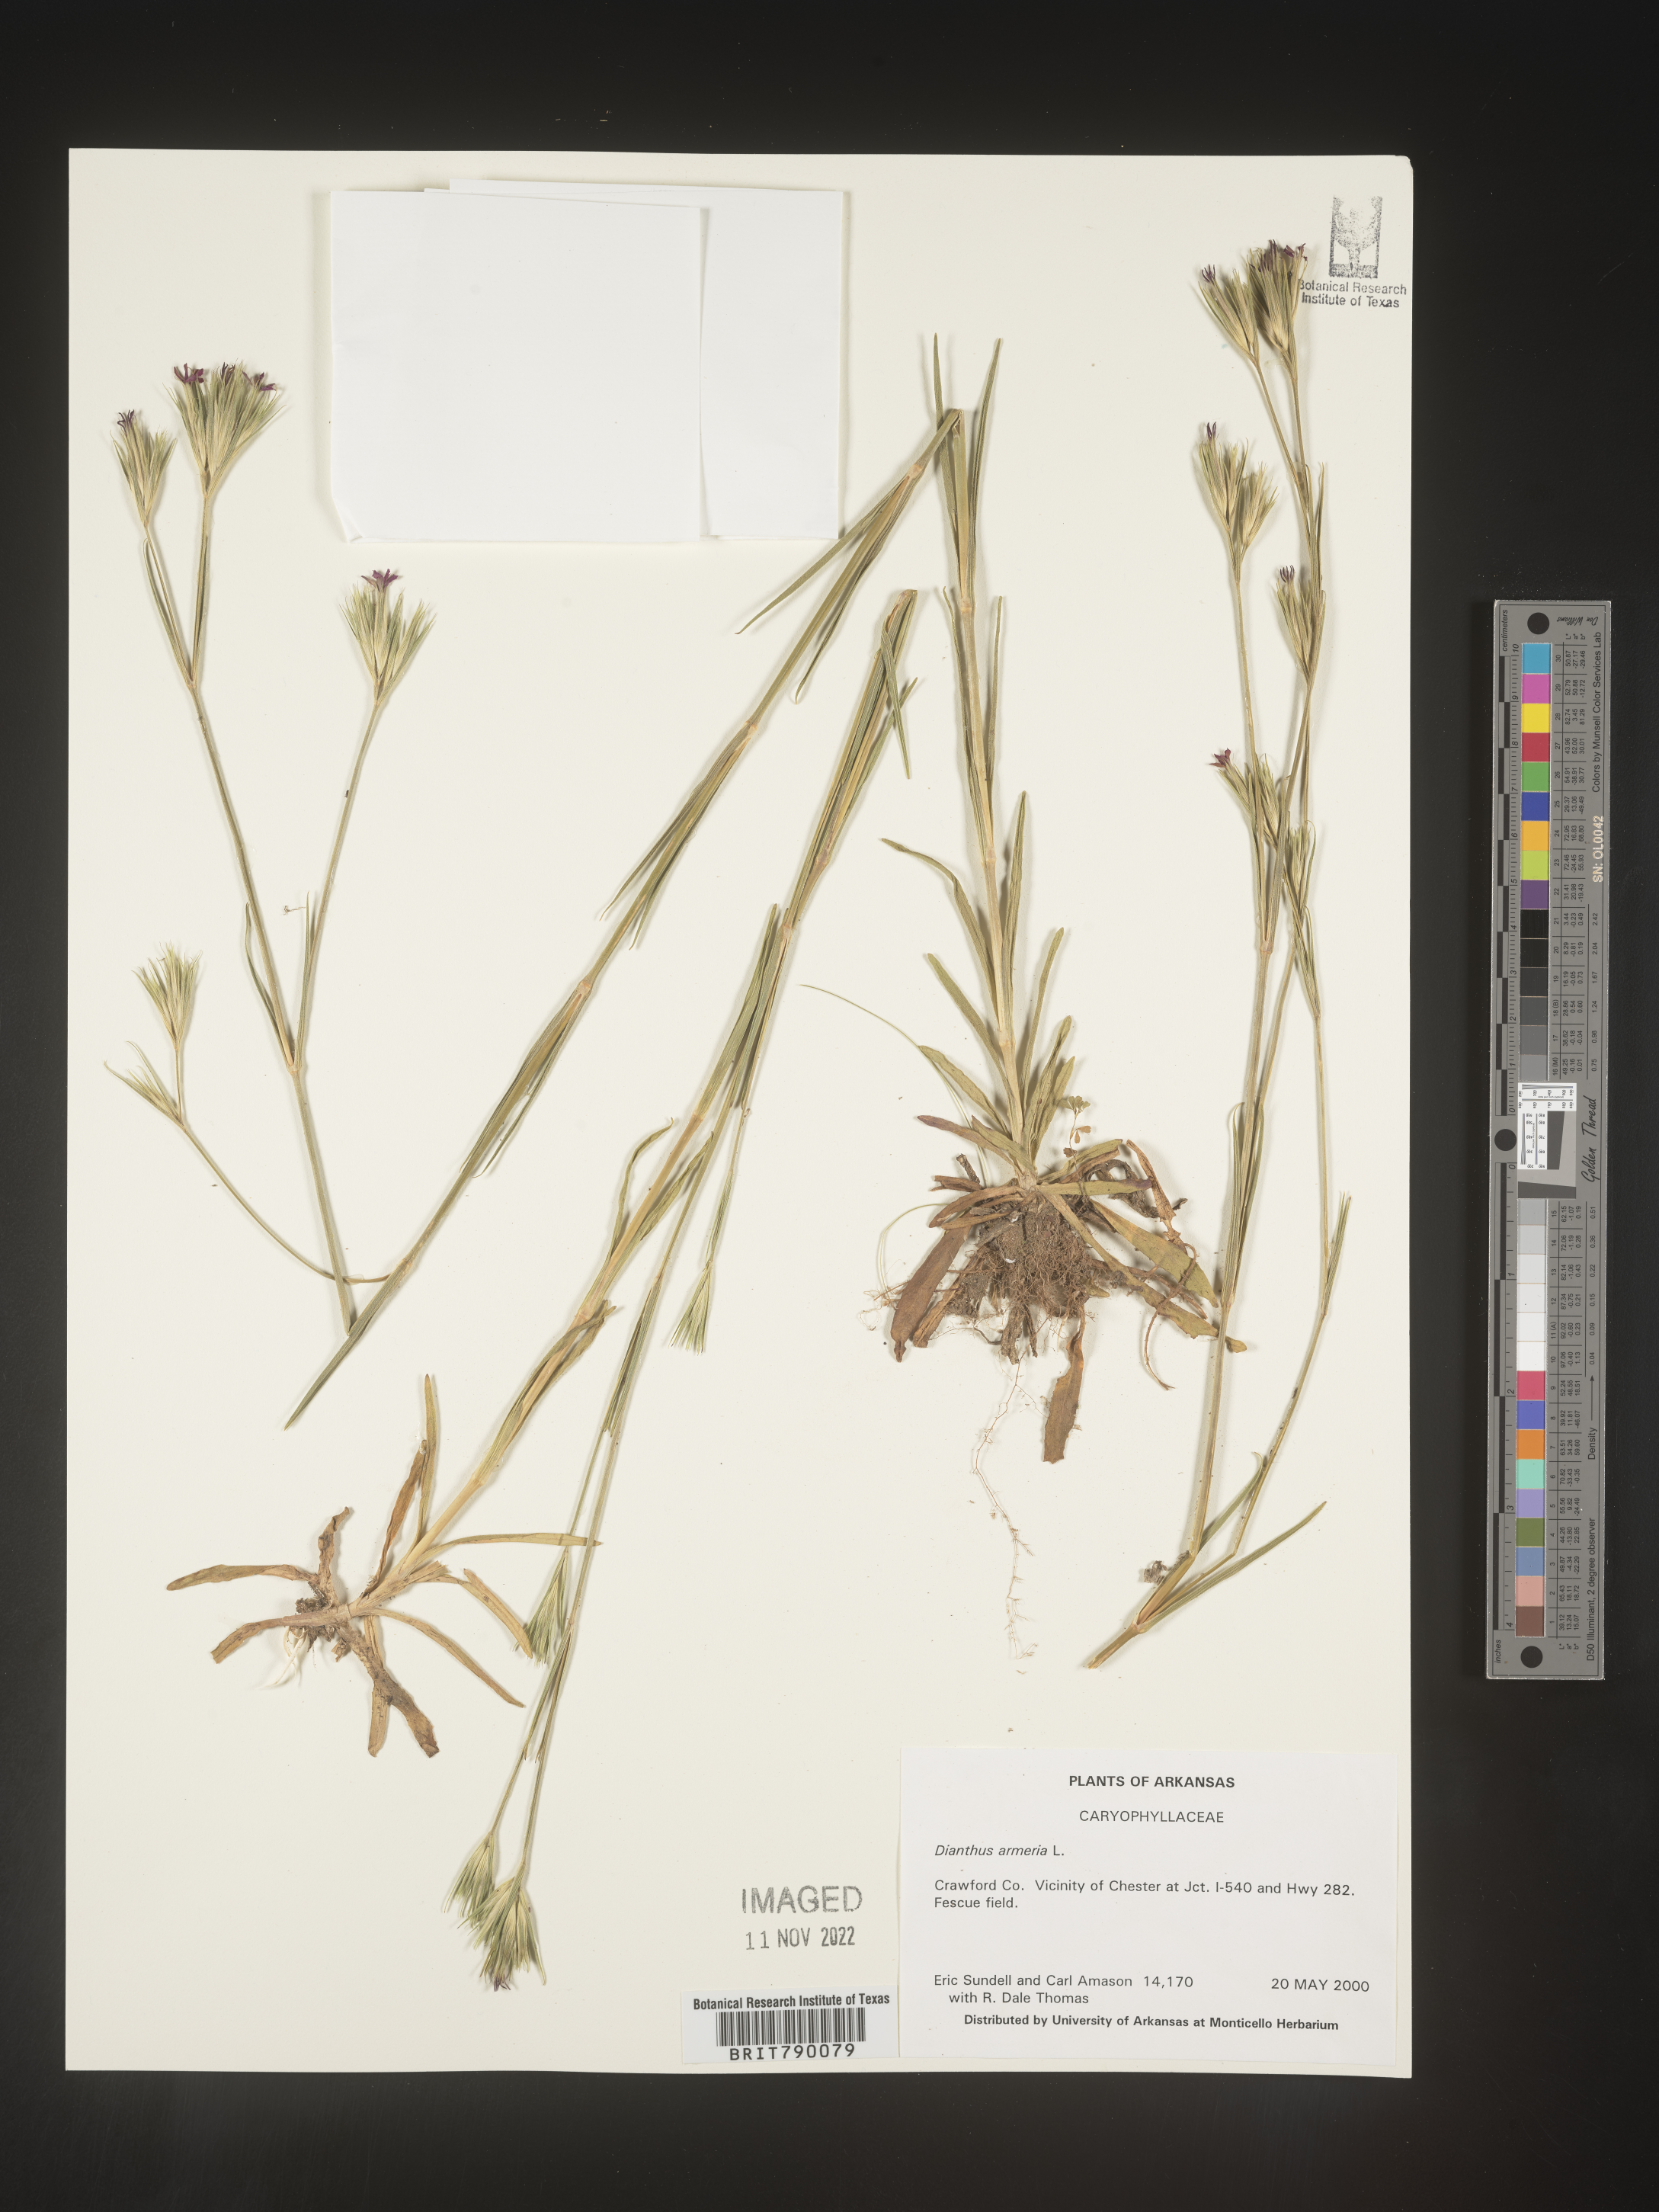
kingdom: Plantae
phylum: Tracheophyta
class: Magnoliopsida
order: Caryophyllales
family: Caryophyllaceae
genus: Dianthus
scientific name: Dianthus armeria
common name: Deptford pink
